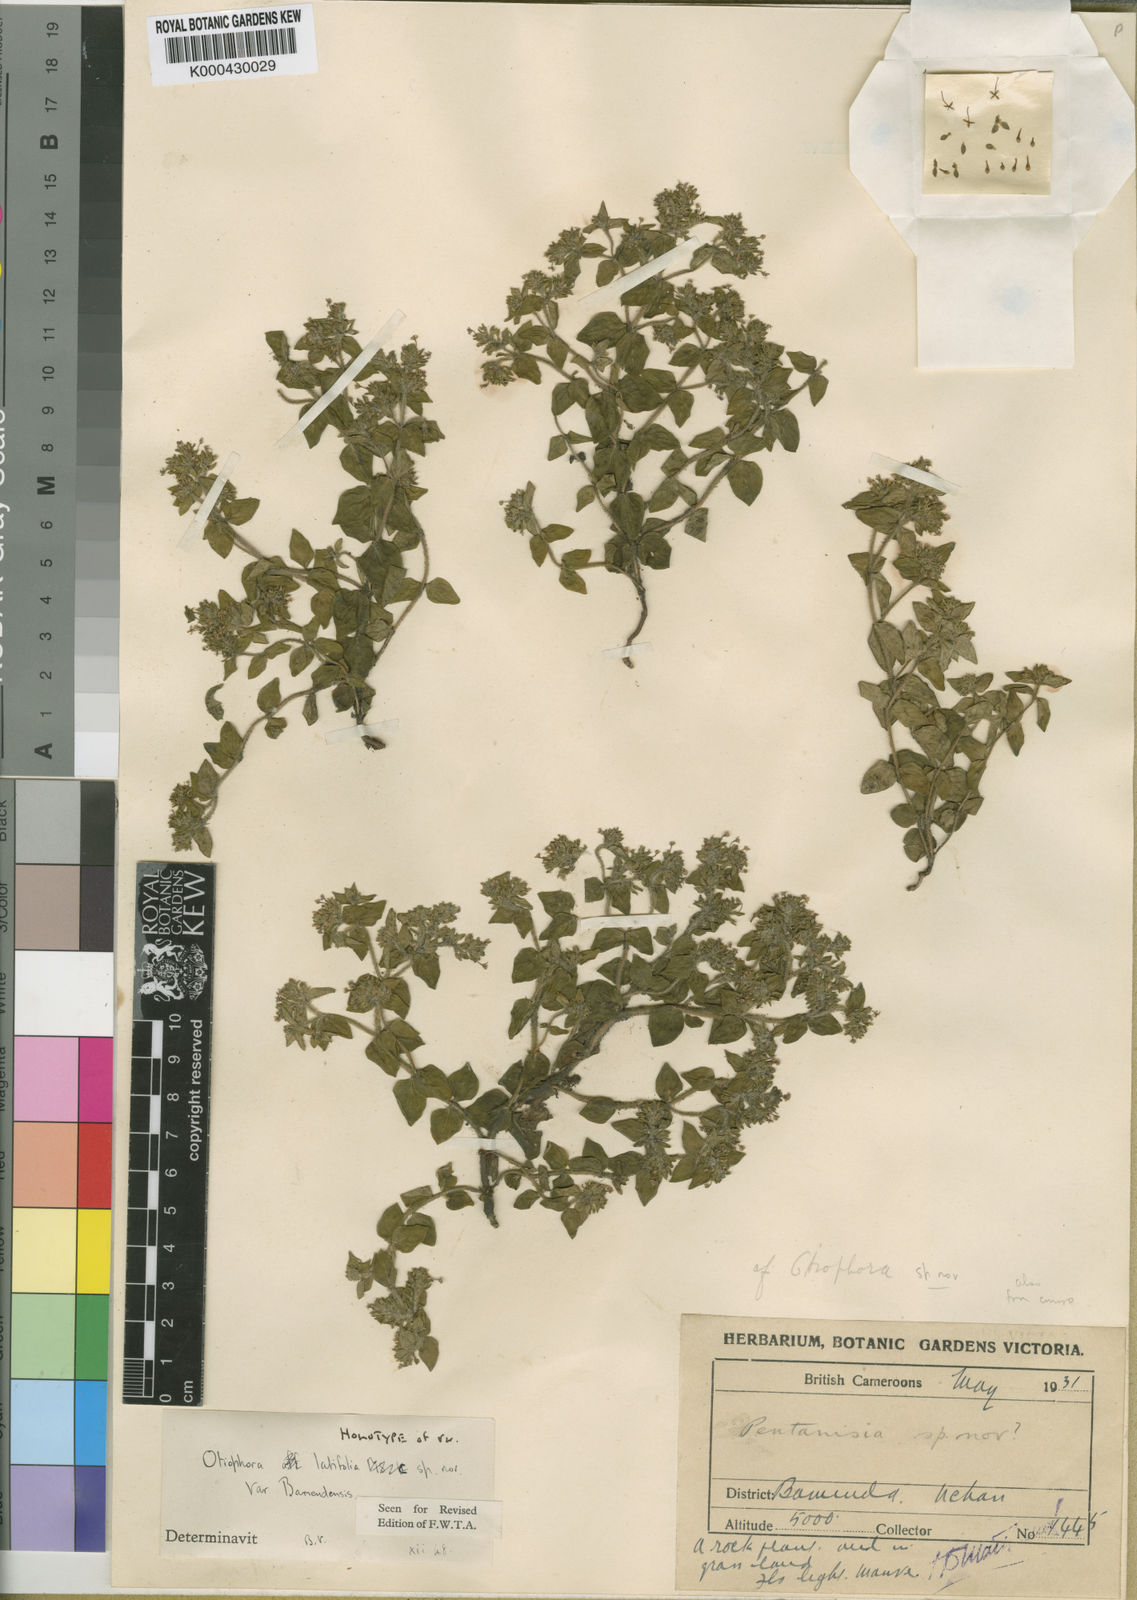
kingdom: Plantae
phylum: Tracheophyta
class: Magnoliopsida
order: Gentianales
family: Rubiaceae
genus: Otiophora
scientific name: Otiophora villicaulis
